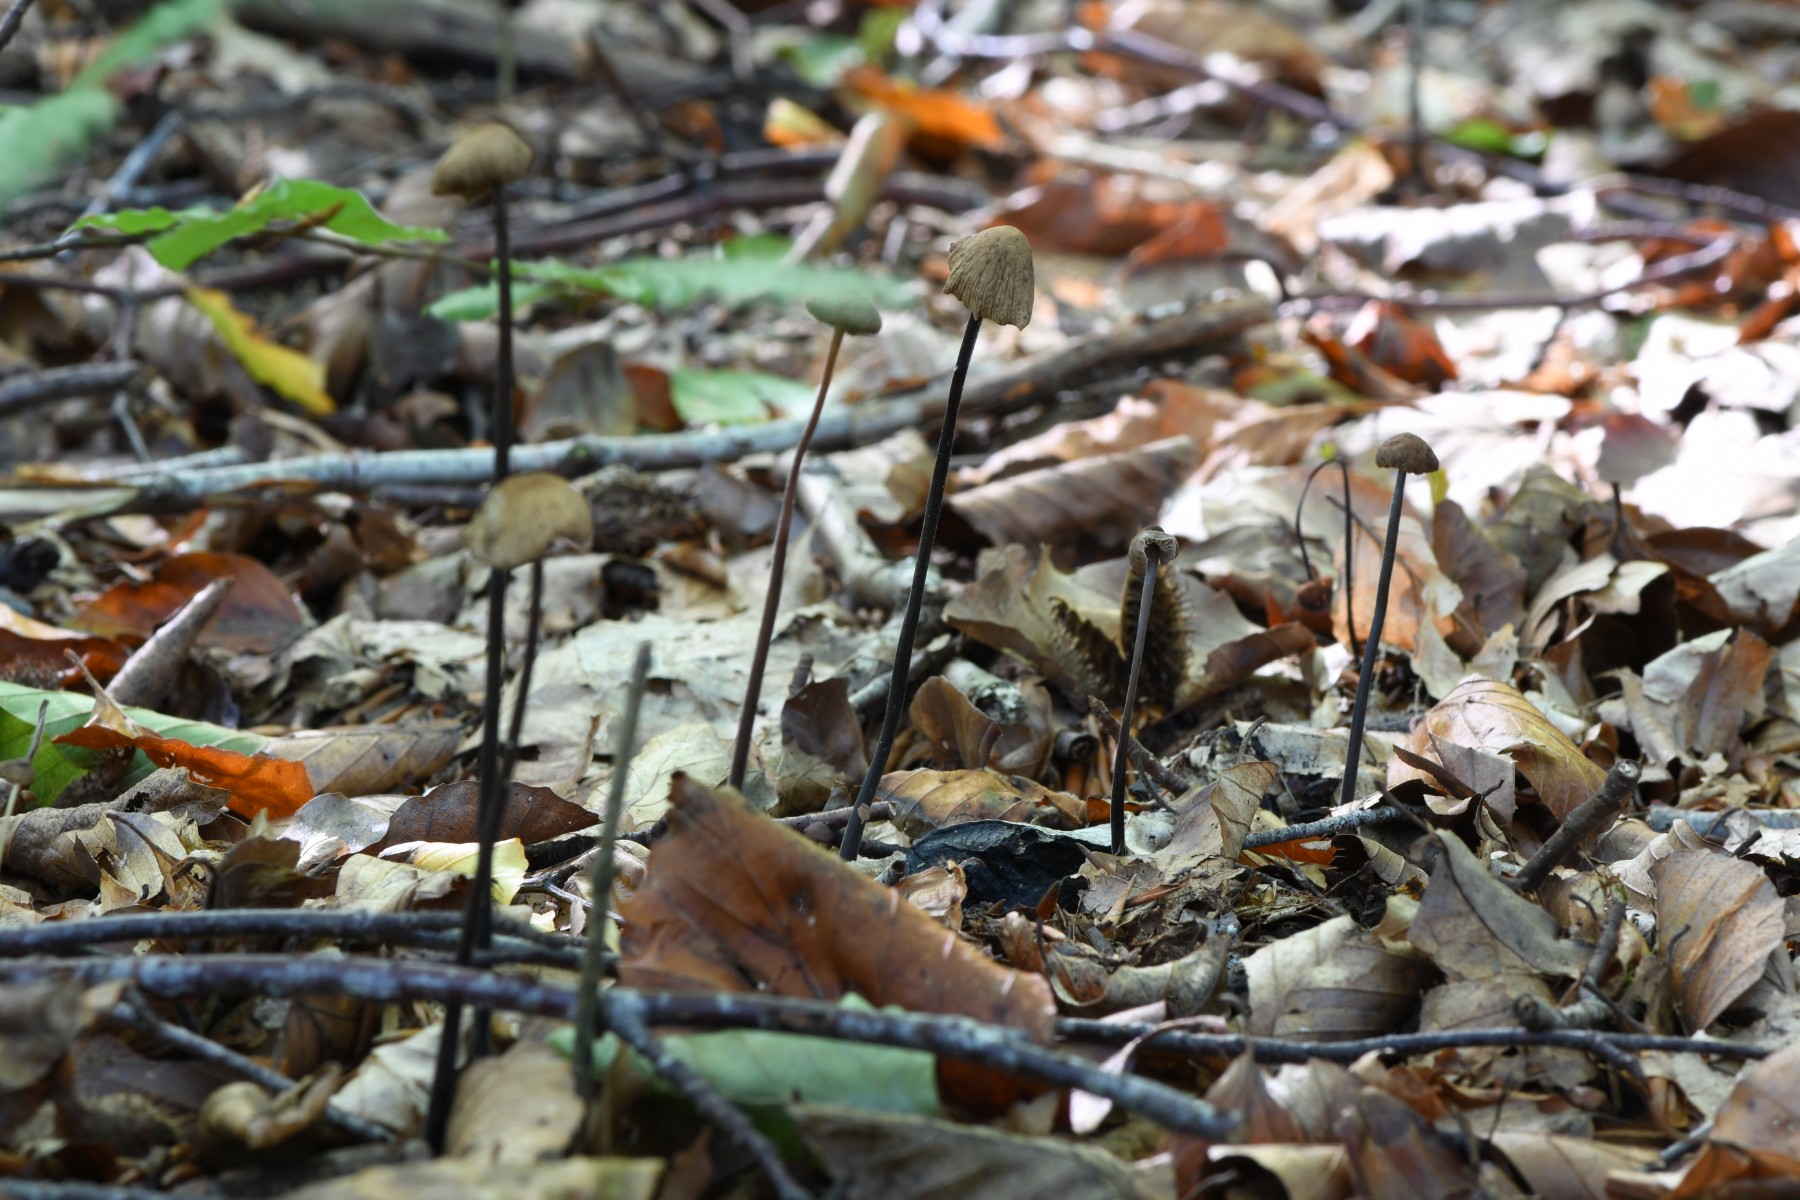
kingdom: Fungi
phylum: Basidiomycota
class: Agaricomycetes
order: Agaricales
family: Omphalotaceae
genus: Mycetinis
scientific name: Mycetinis alliaceus
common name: stor løghat
